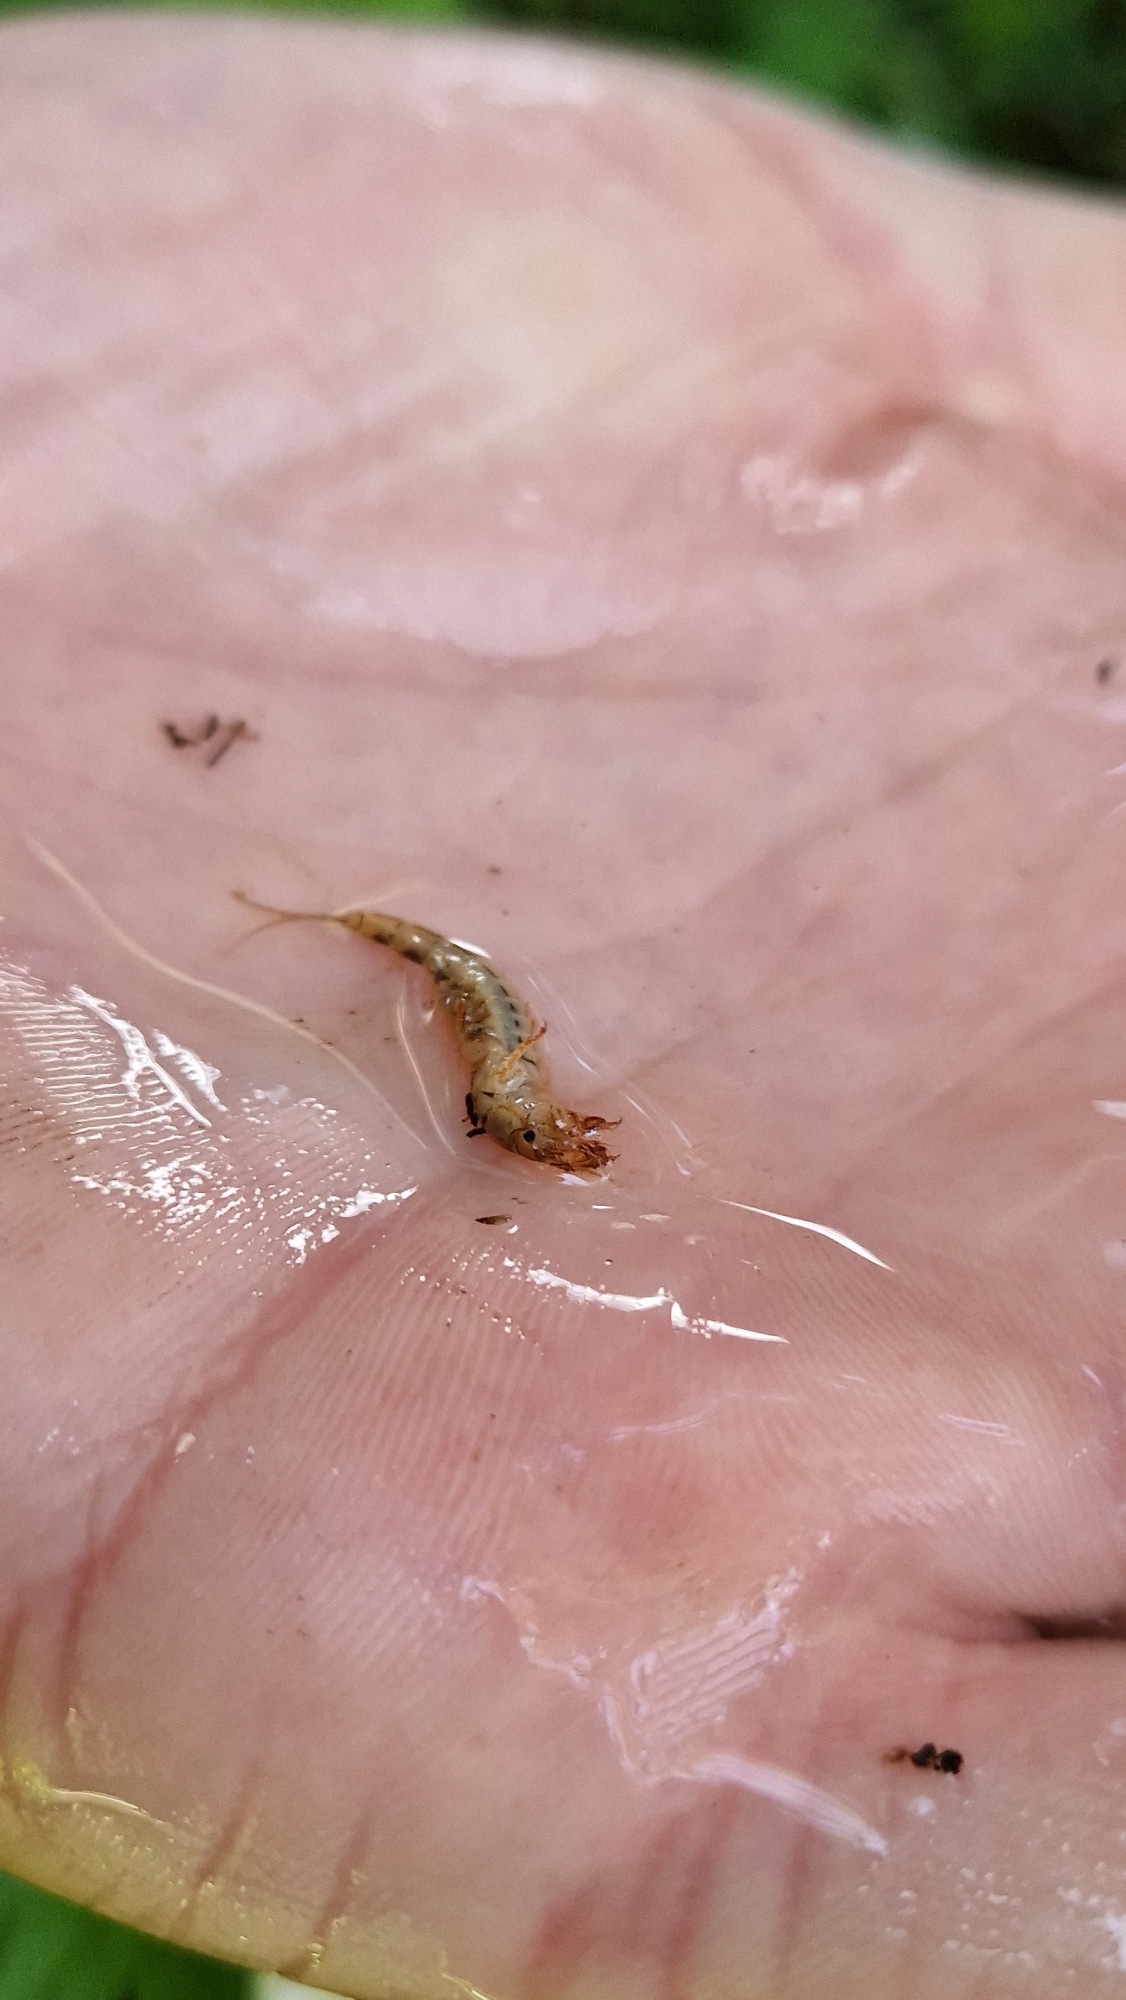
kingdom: Animalia
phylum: Arthropoda
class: Insecta
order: Ephemeroptera
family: Ephemeridae
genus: Ephemera
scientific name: Ephemera danica
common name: Stor majflue
